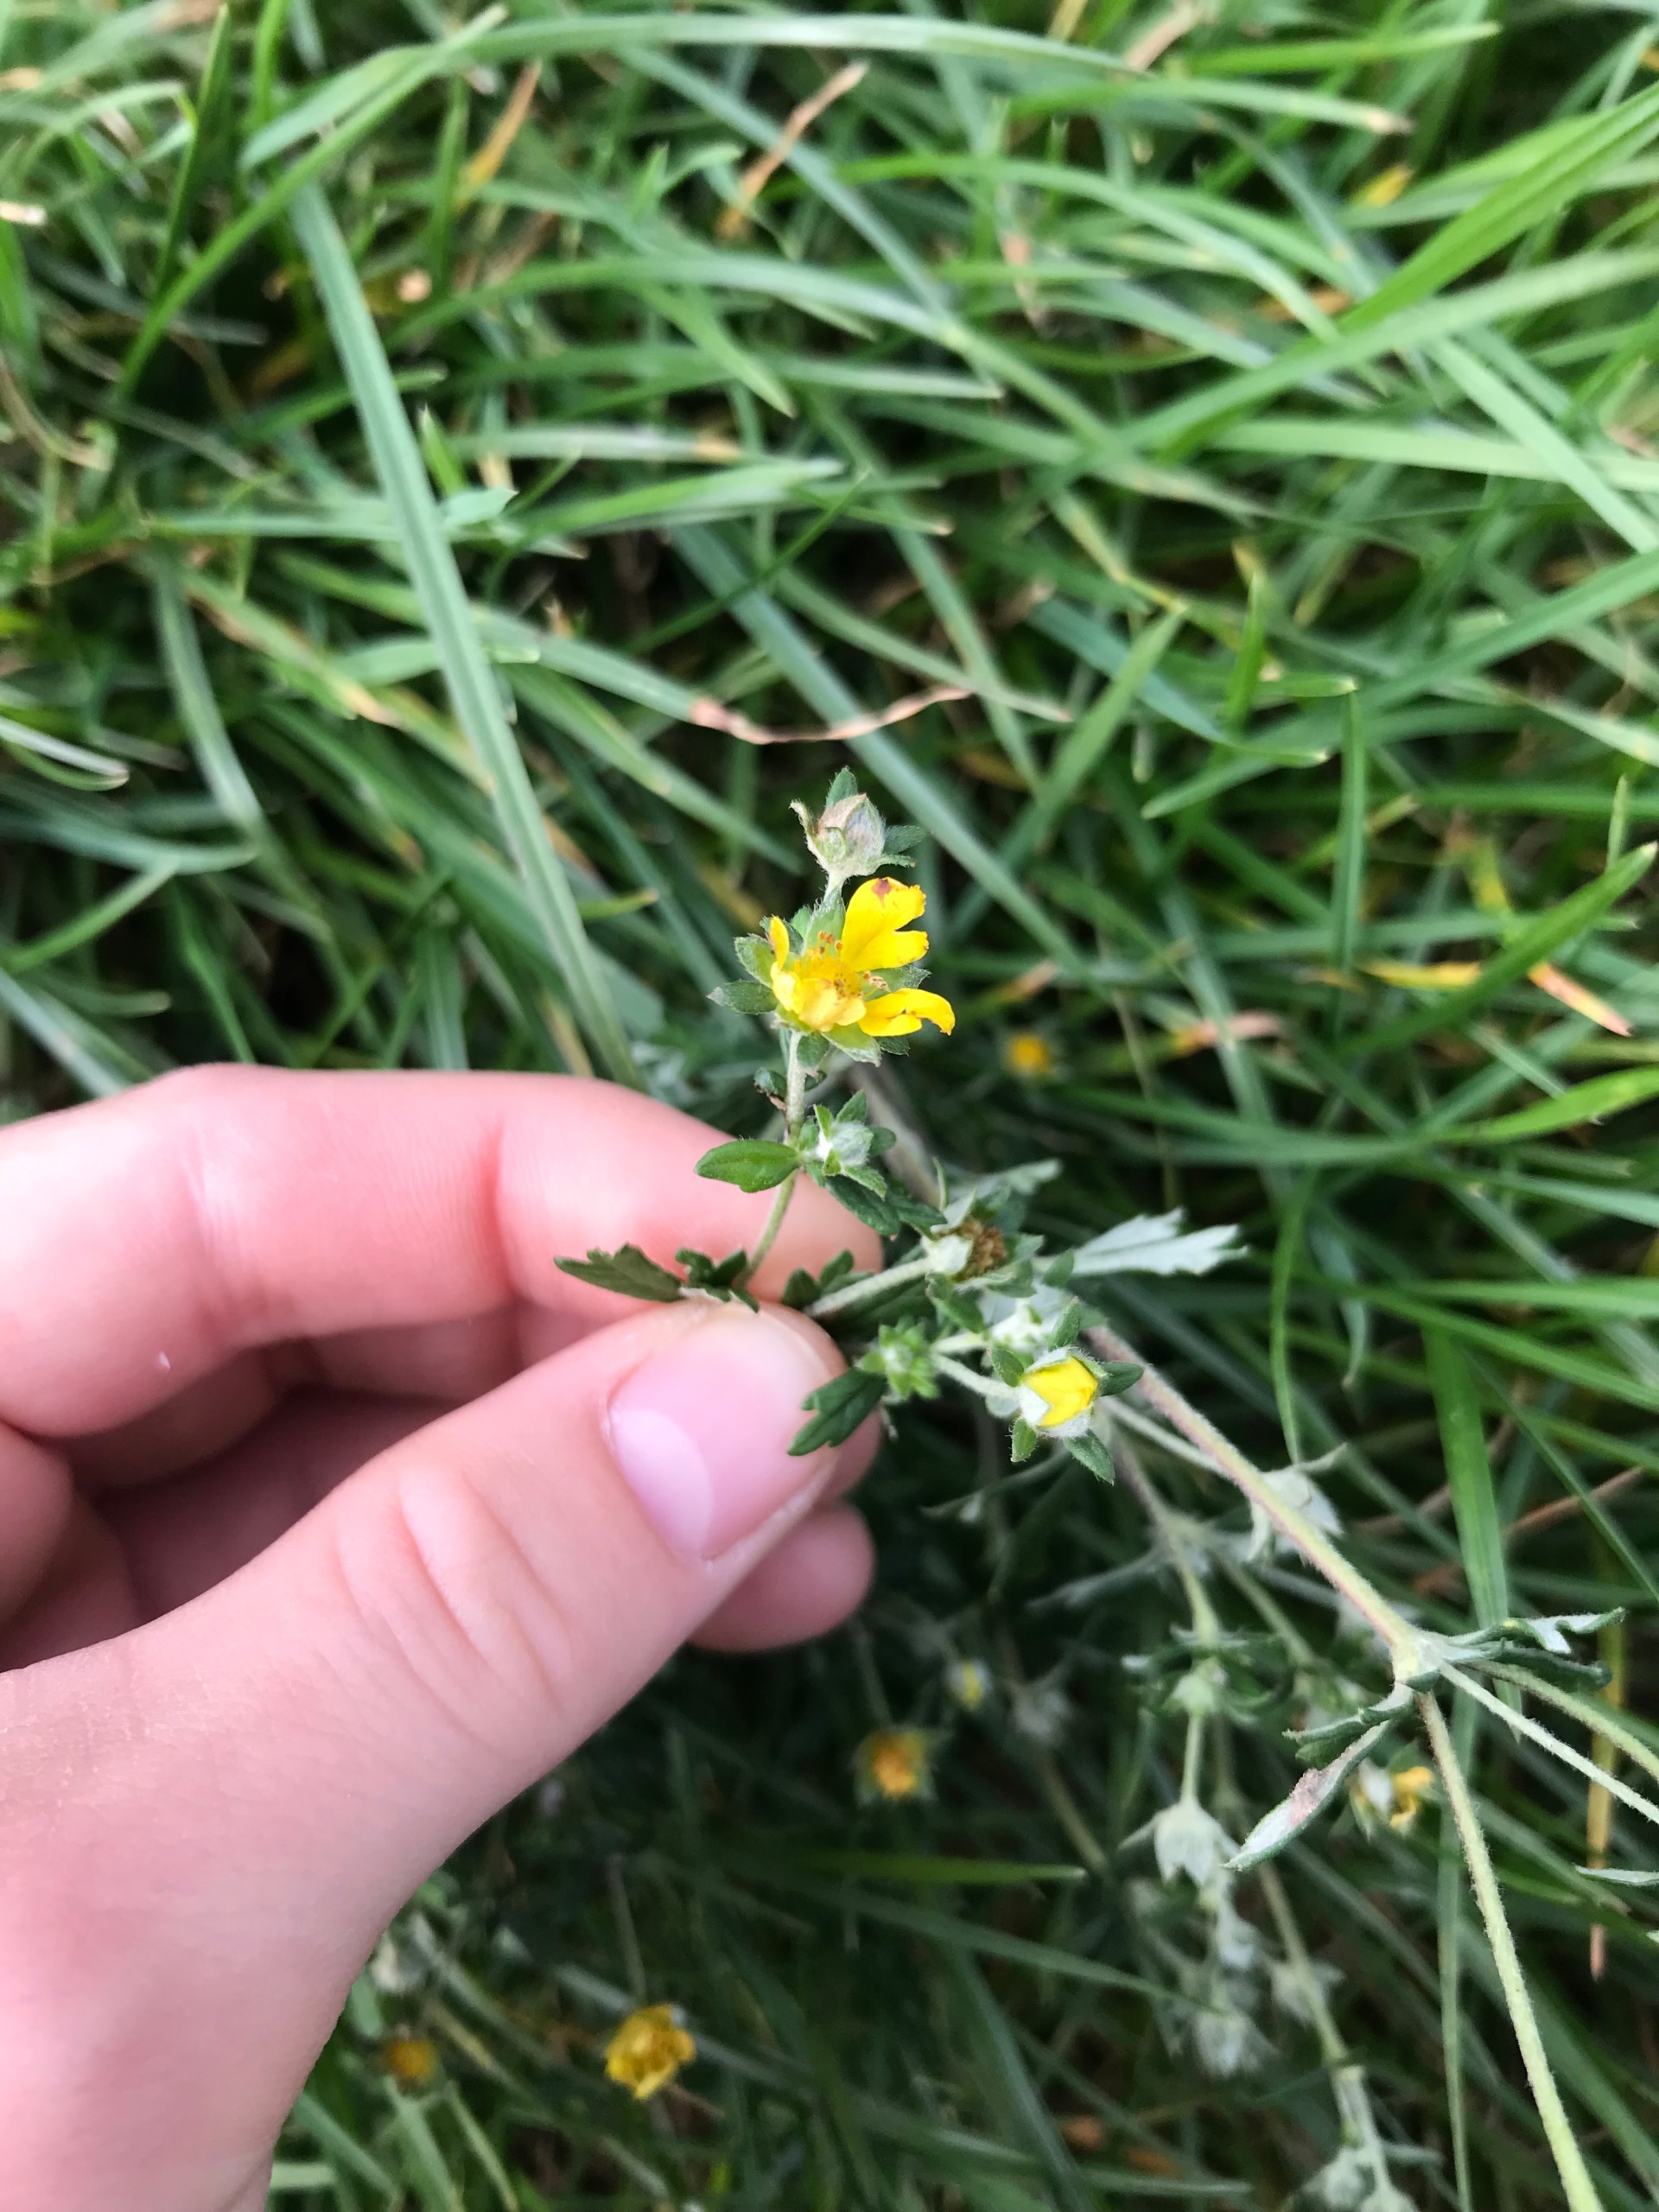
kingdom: Plantae
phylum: Tracheophyta
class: Magnoliopsida
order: Rosales
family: Rosaceae
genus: Potentilla
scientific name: Potentilla argentea
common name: Sølv-potentil
